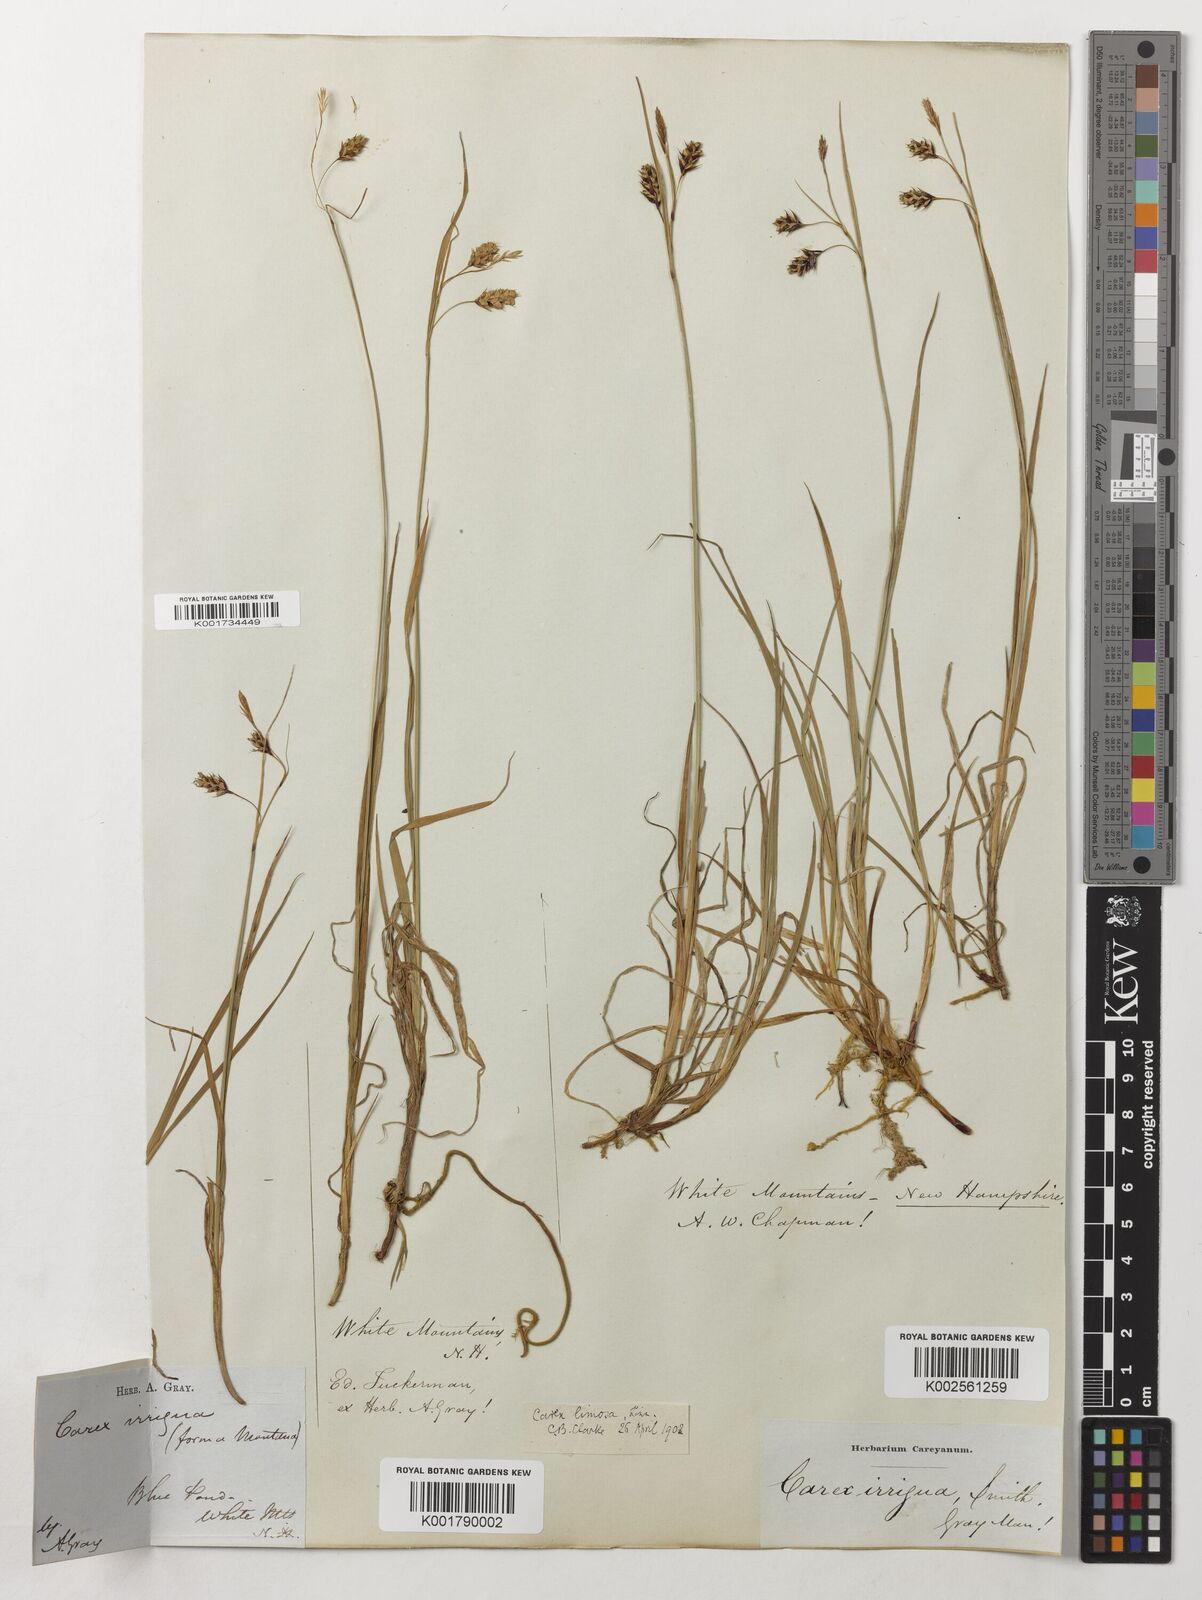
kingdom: Plantae
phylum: Tracheophyta
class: Liliopsida
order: Poales
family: Cyperaceae
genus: Carex
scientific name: Carex magellanica
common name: Bog sedge
